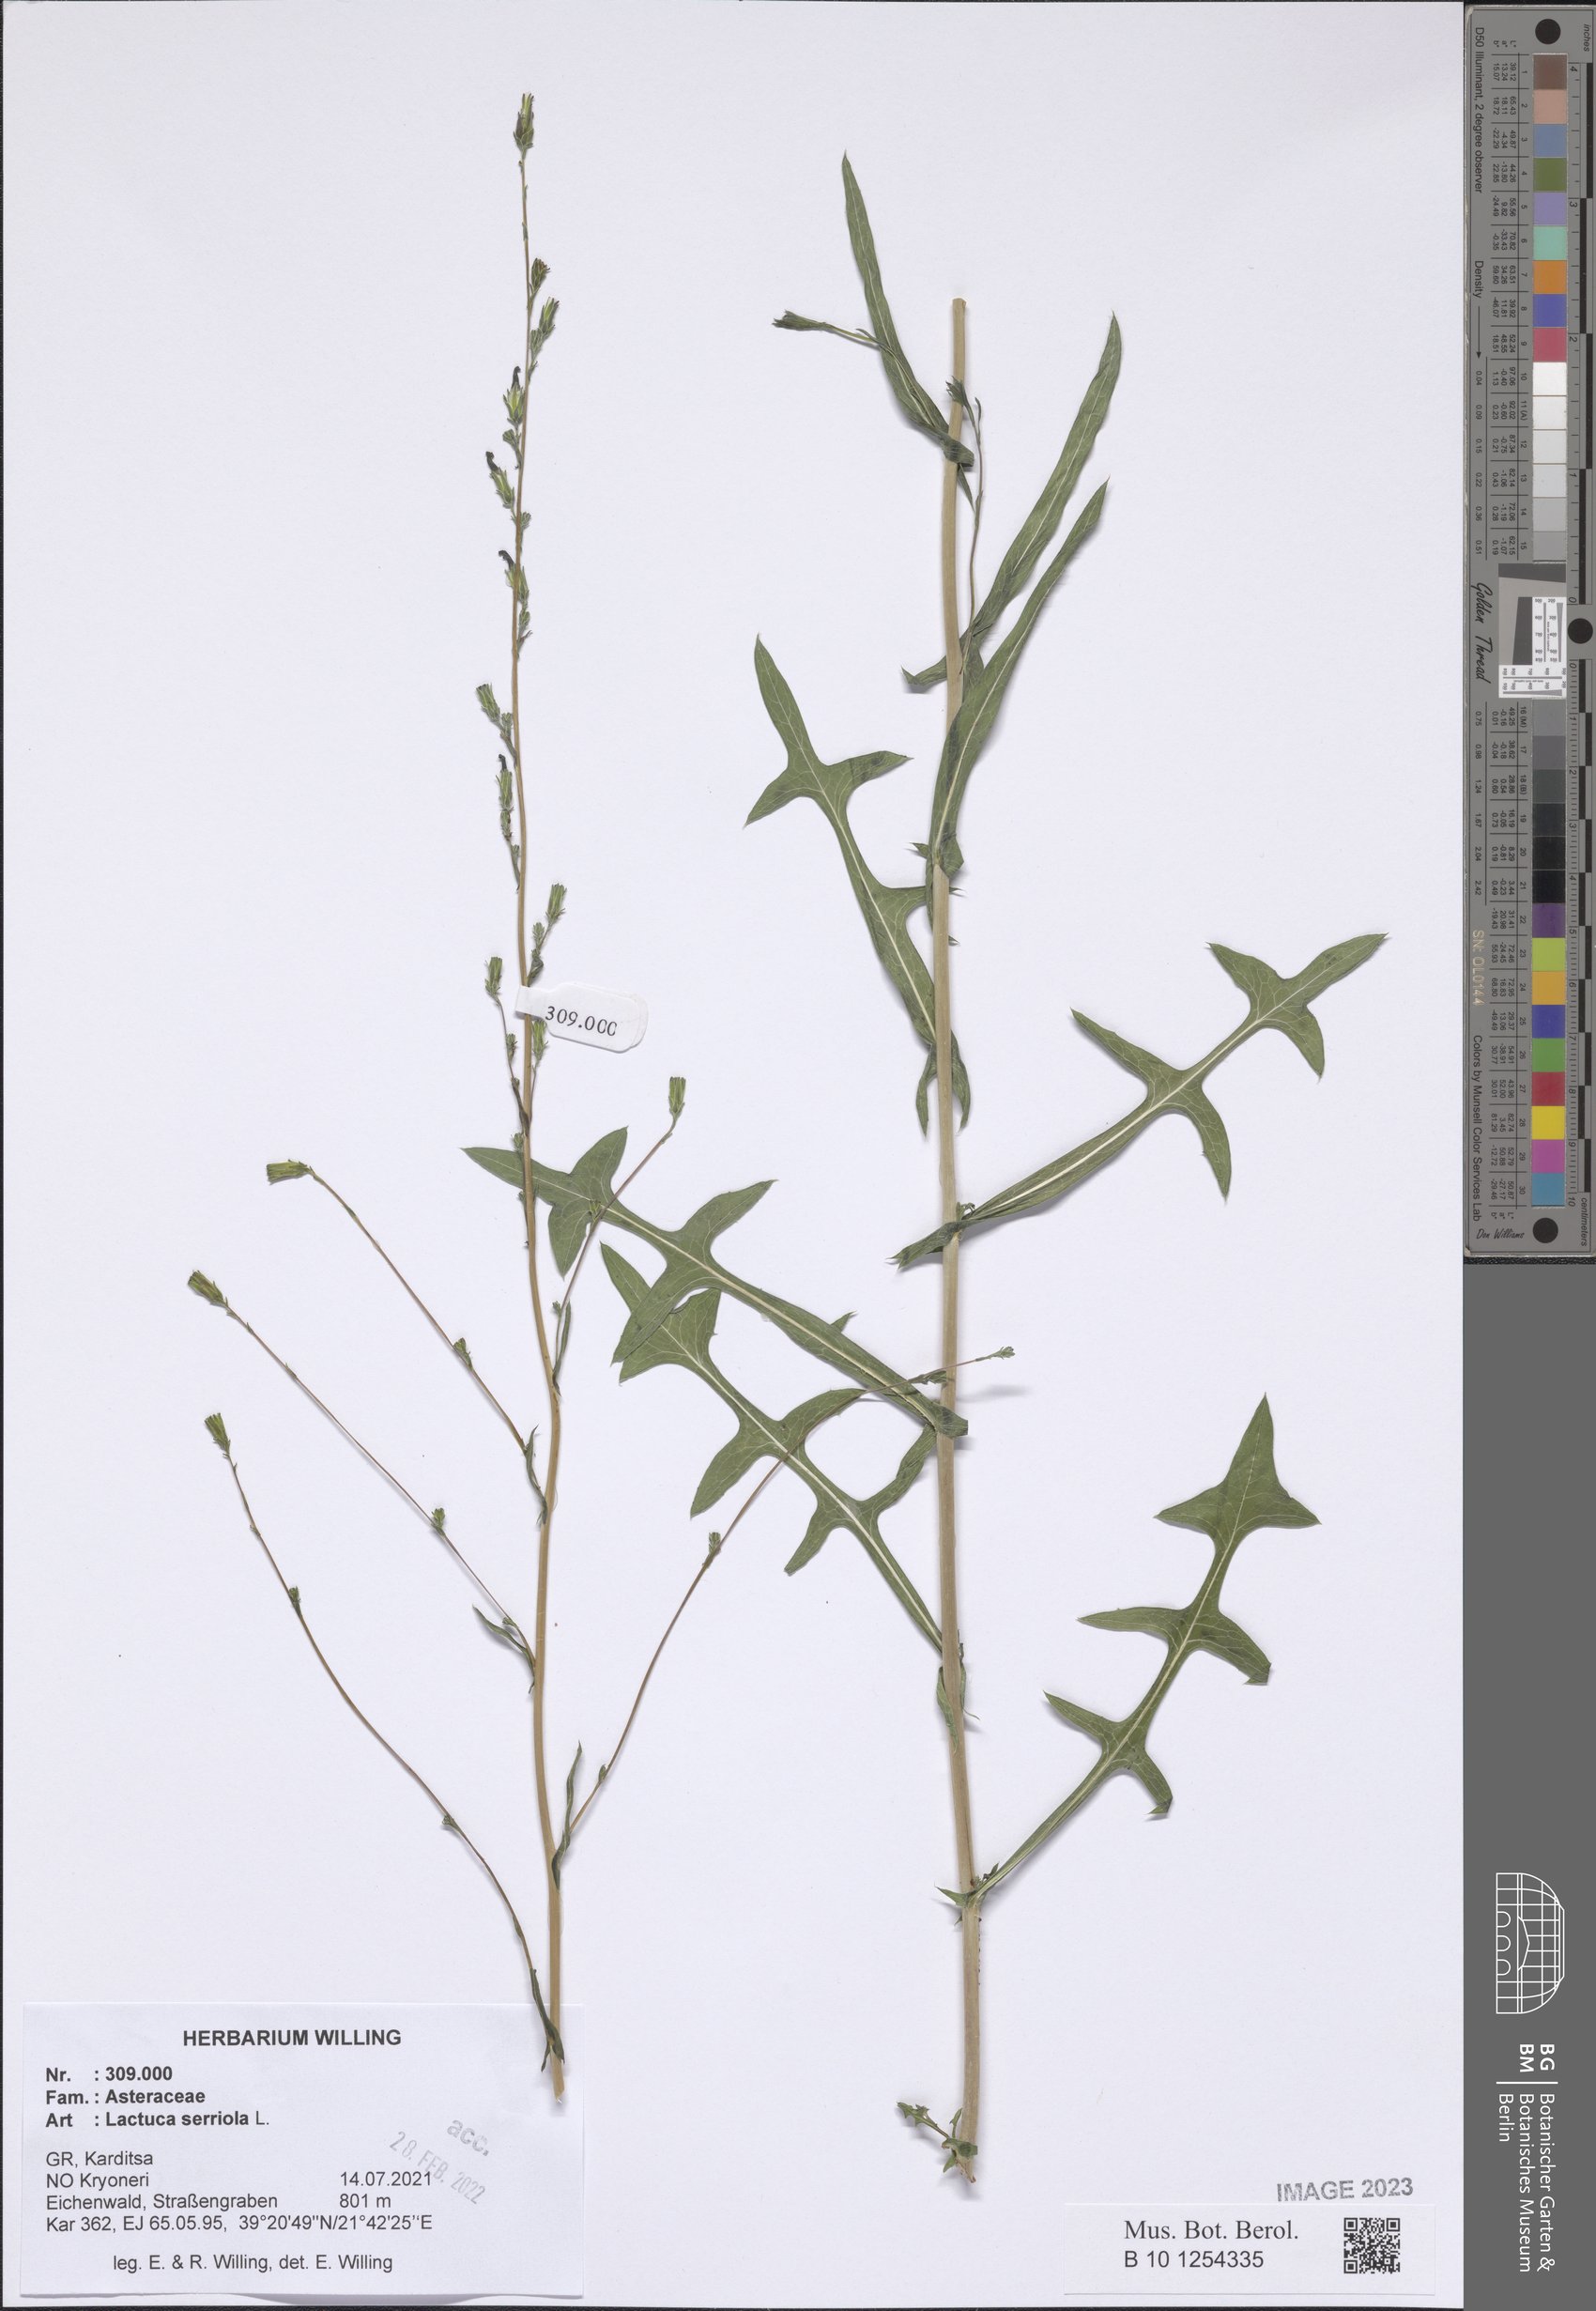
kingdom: Plantae
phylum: Tracheophyta
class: Magnoliopsida
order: Asterales
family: Asteraceae
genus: Lactuca
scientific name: Lactuca serriola
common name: Prickly lettuce
